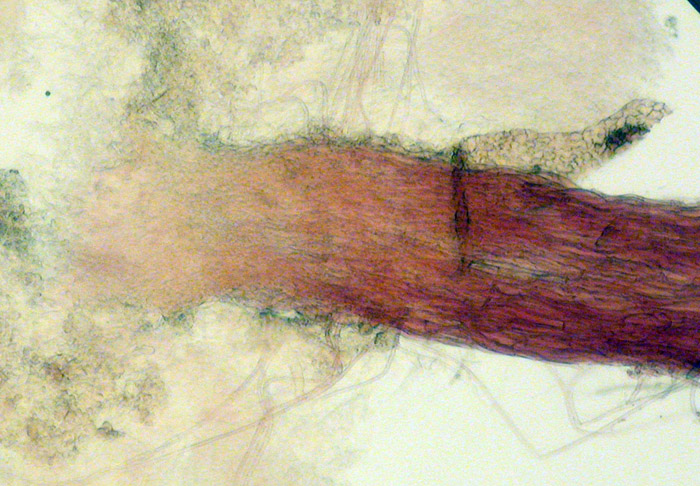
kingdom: Fungi
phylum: Basidiomycota
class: Agaricomycetes
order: Agaricales
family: Typhulaceae
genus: Typhula
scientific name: Typhula caricina
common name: star-trådkølle
